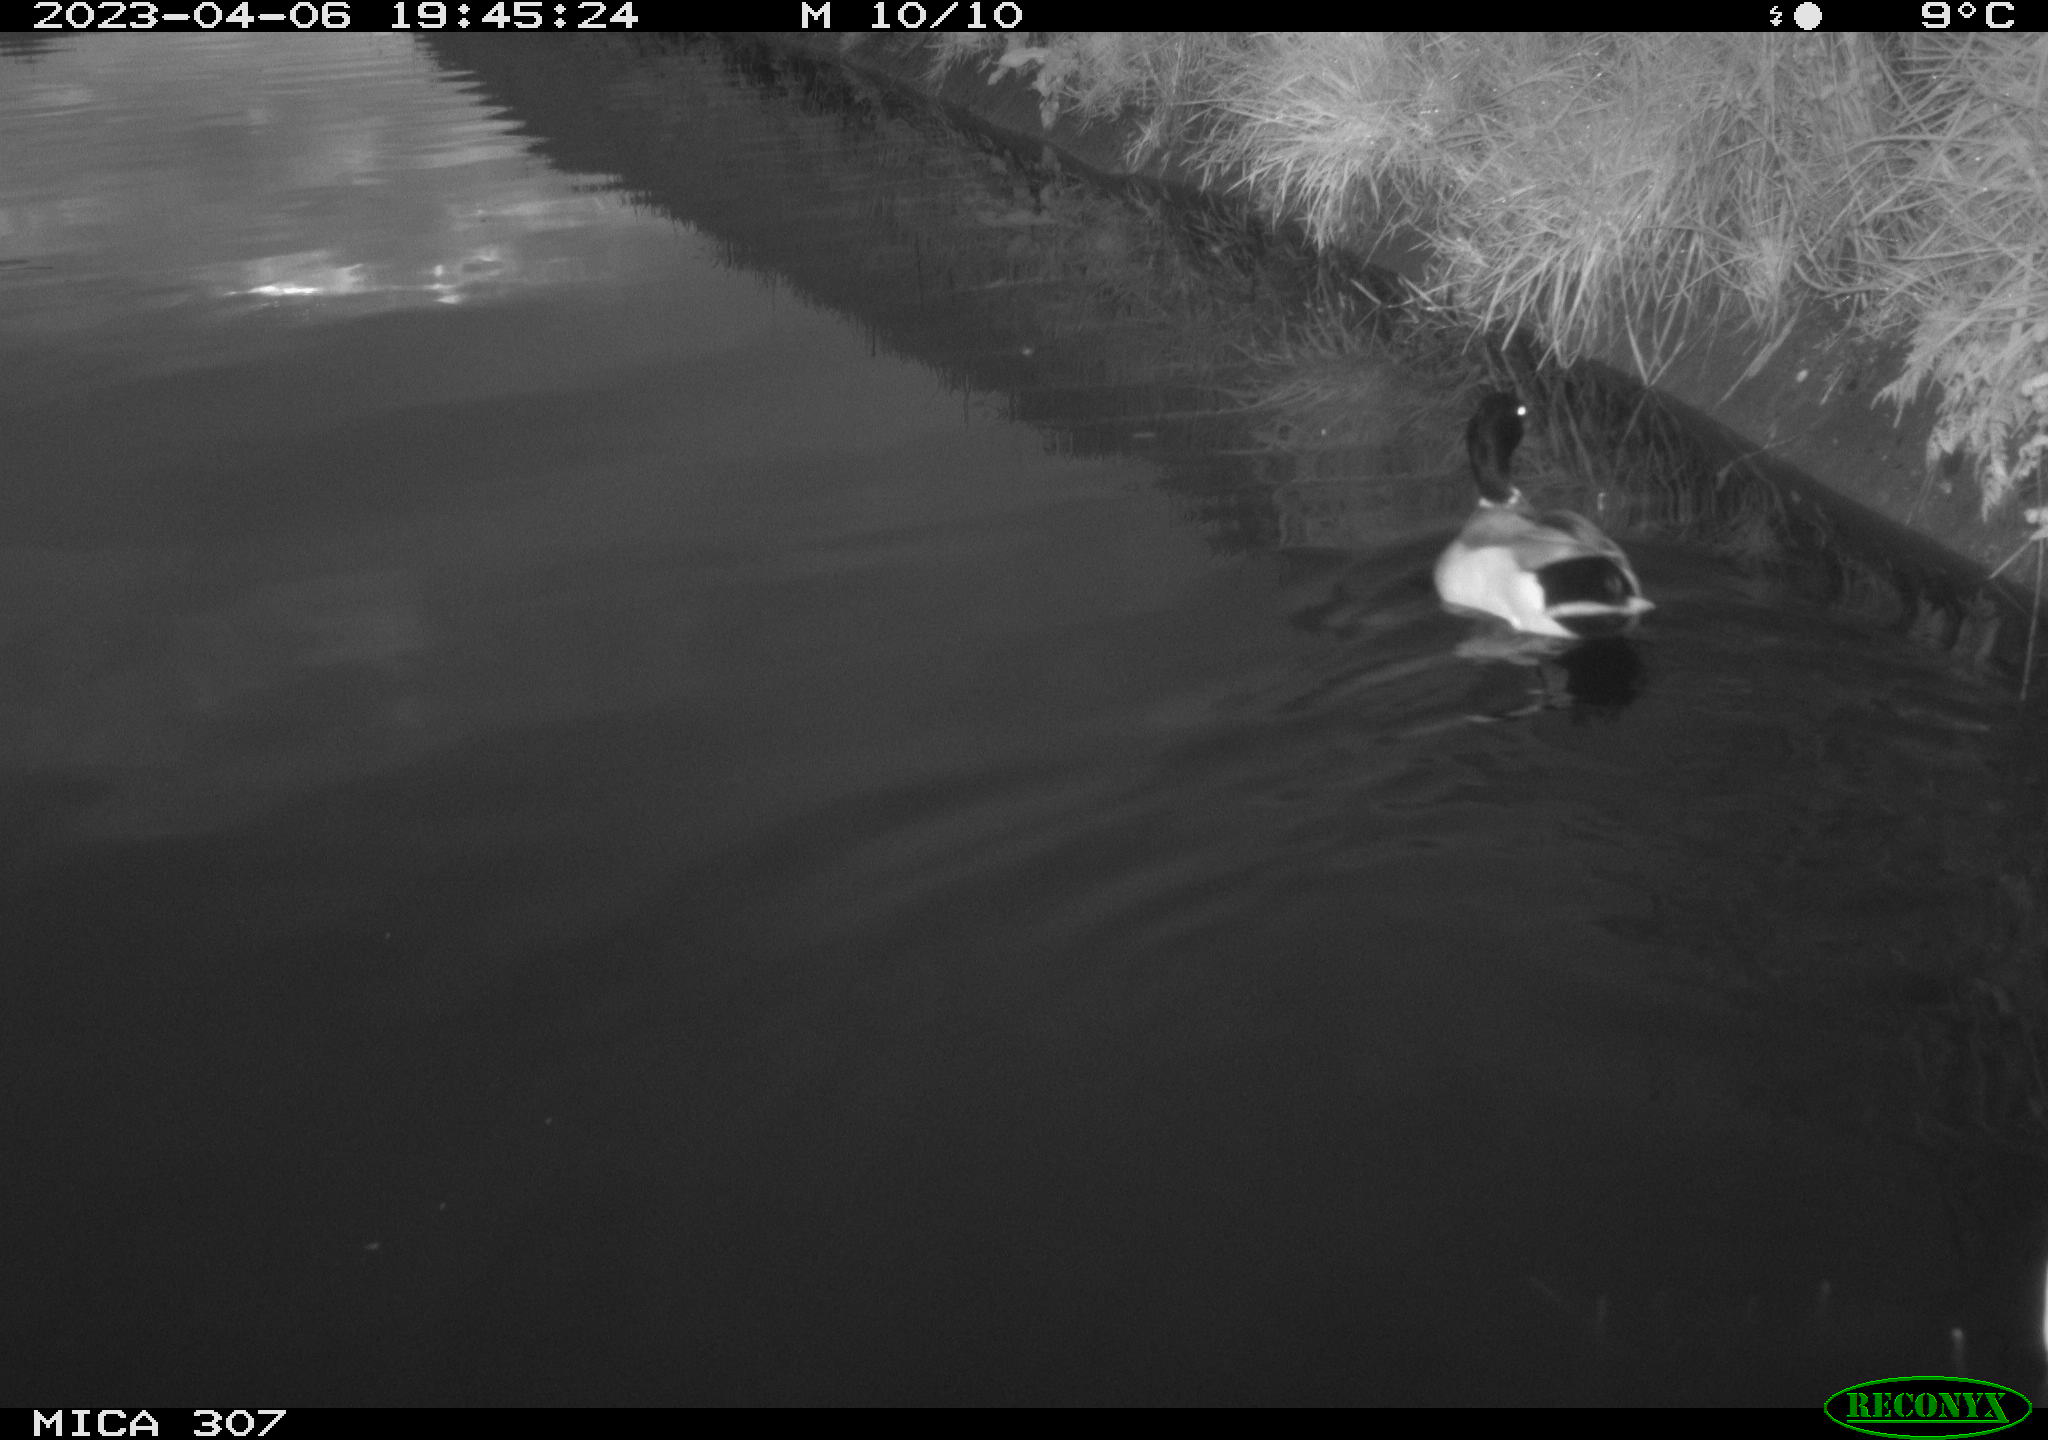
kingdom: Animalia
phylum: Chordata
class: Aves
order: Anseriformes
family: Anatidae
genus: Anas
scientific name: Anas
